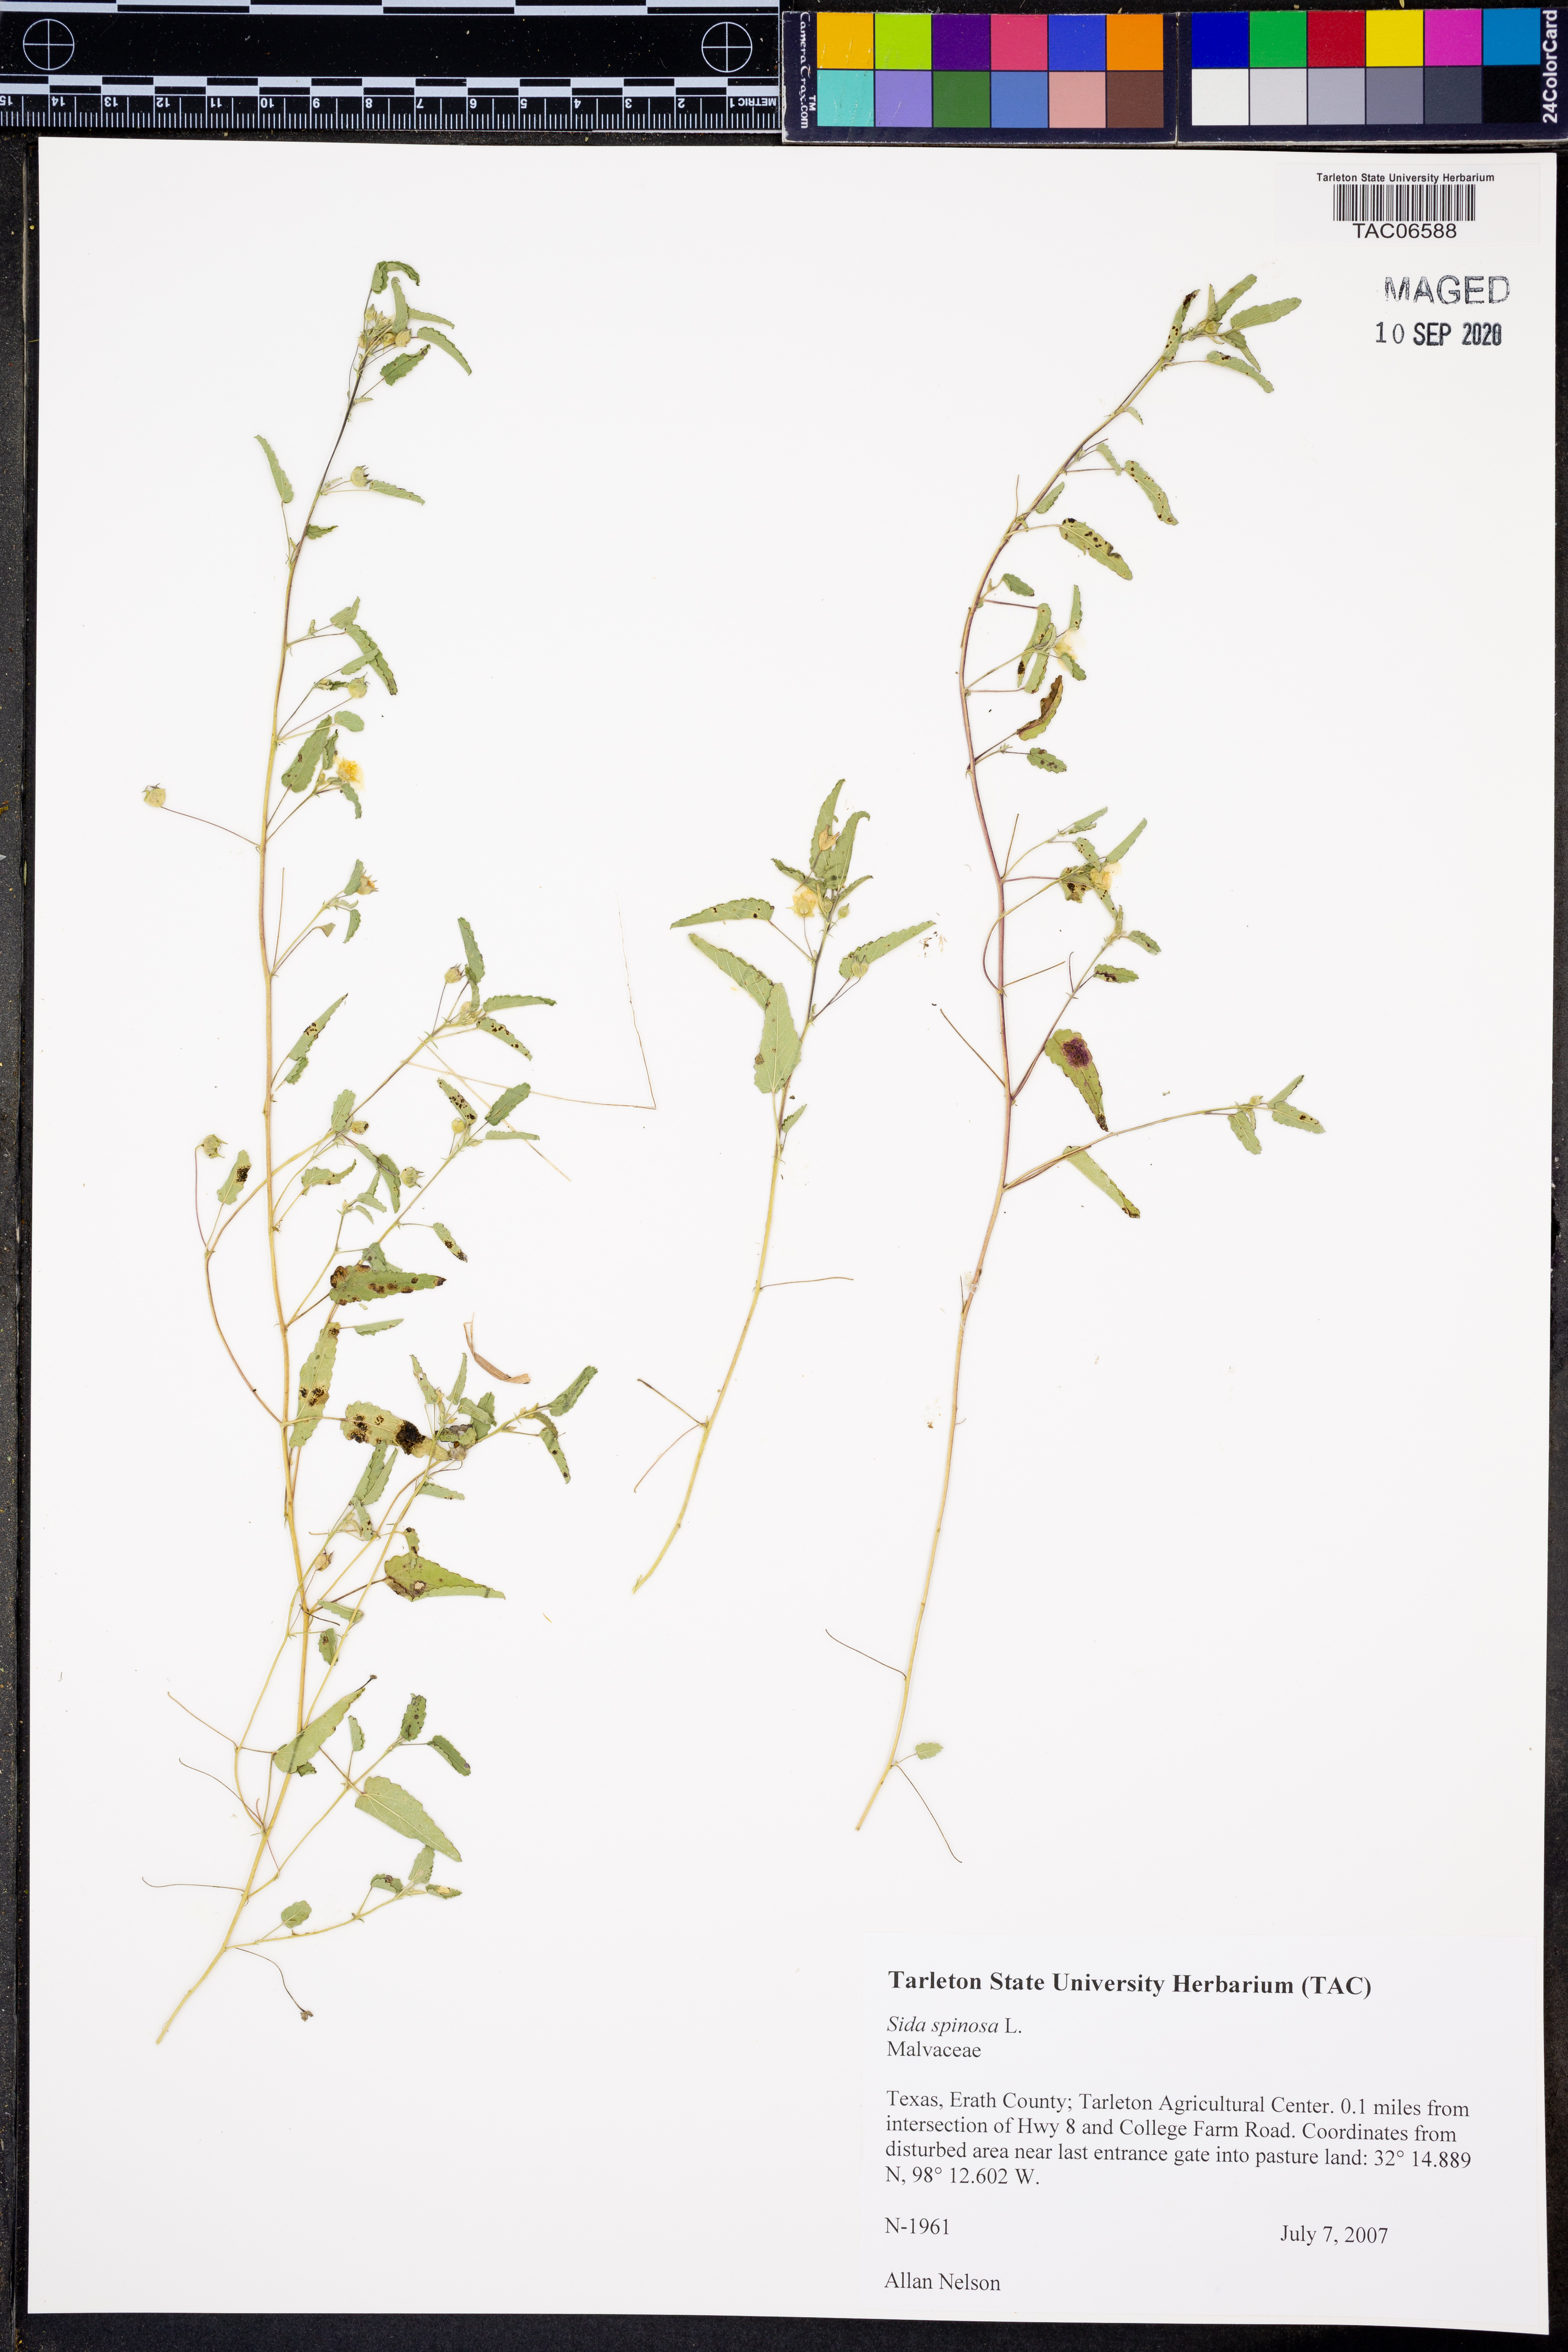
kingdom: Plantae
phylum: Tracheophyta
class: Magnoliopsida
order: Malvales
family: Malvaceae
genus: Sida
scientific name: Sida spinosa
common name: Prickly fanpetals
